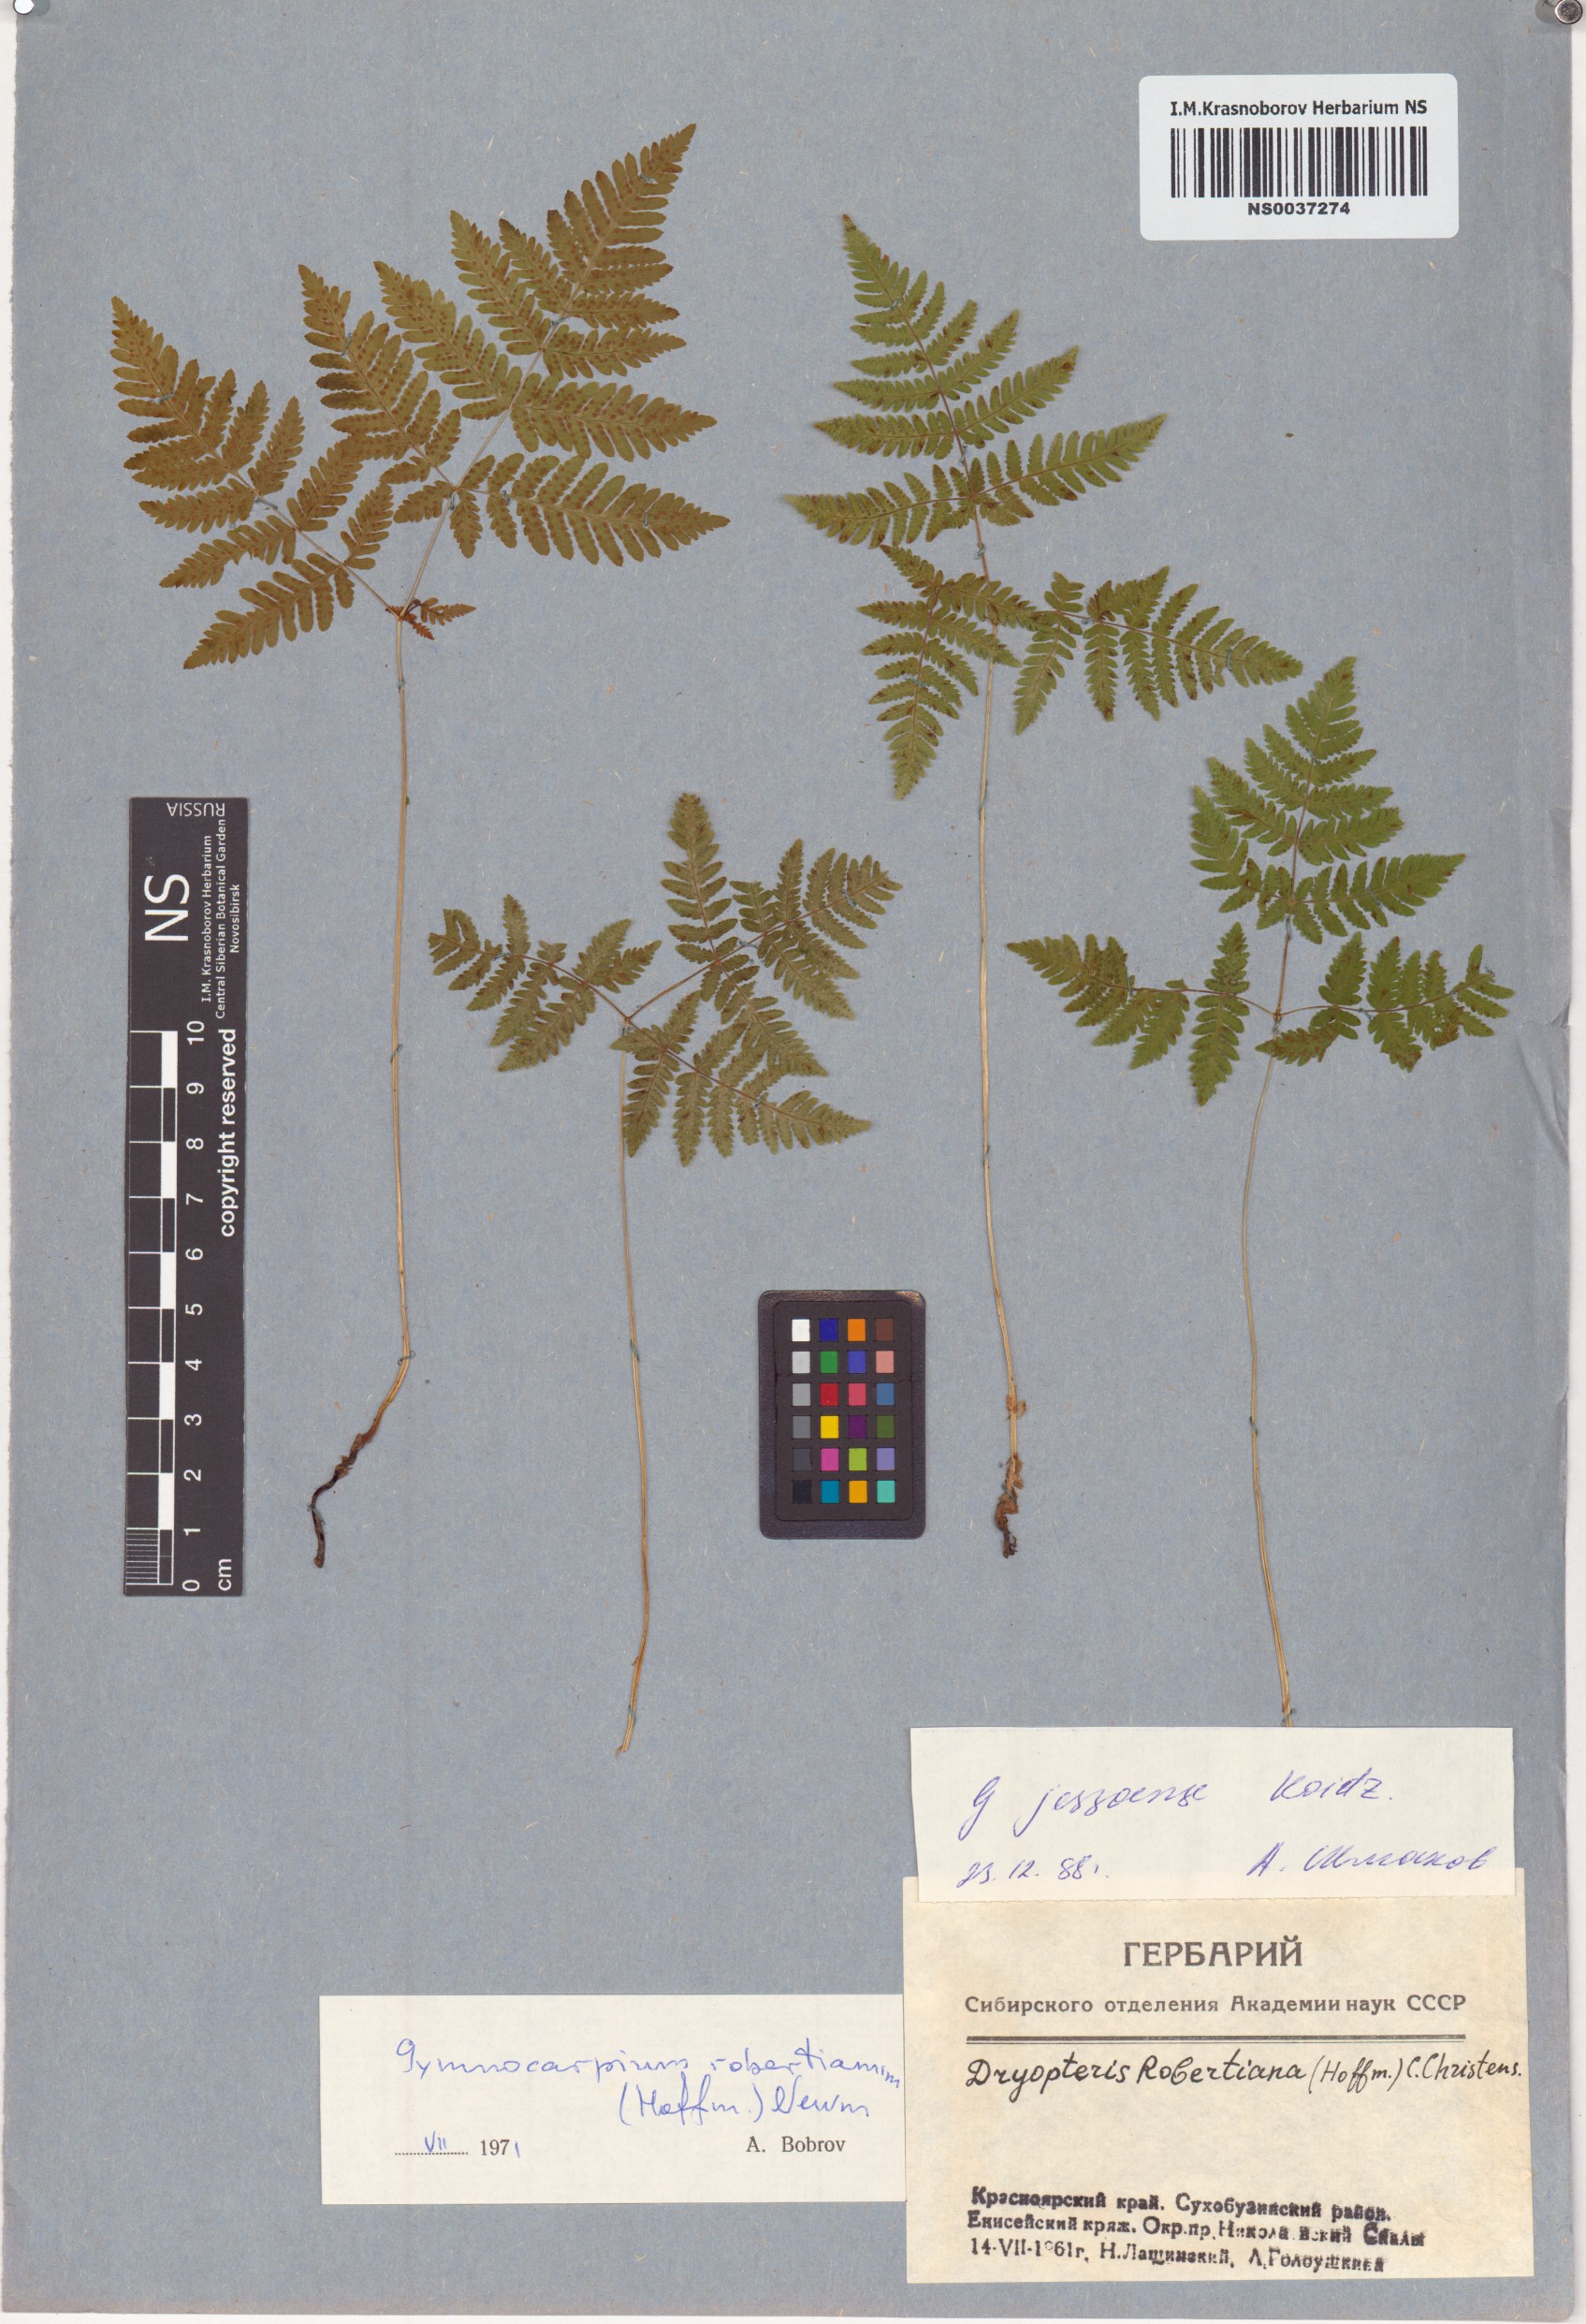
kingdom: Plantae
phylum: Tracheophyta
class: Polypodiopsida
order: Polypodiales
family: Cystopteridaceae
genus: Gymnocarpium
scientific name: Gymnocarpium jessoense
